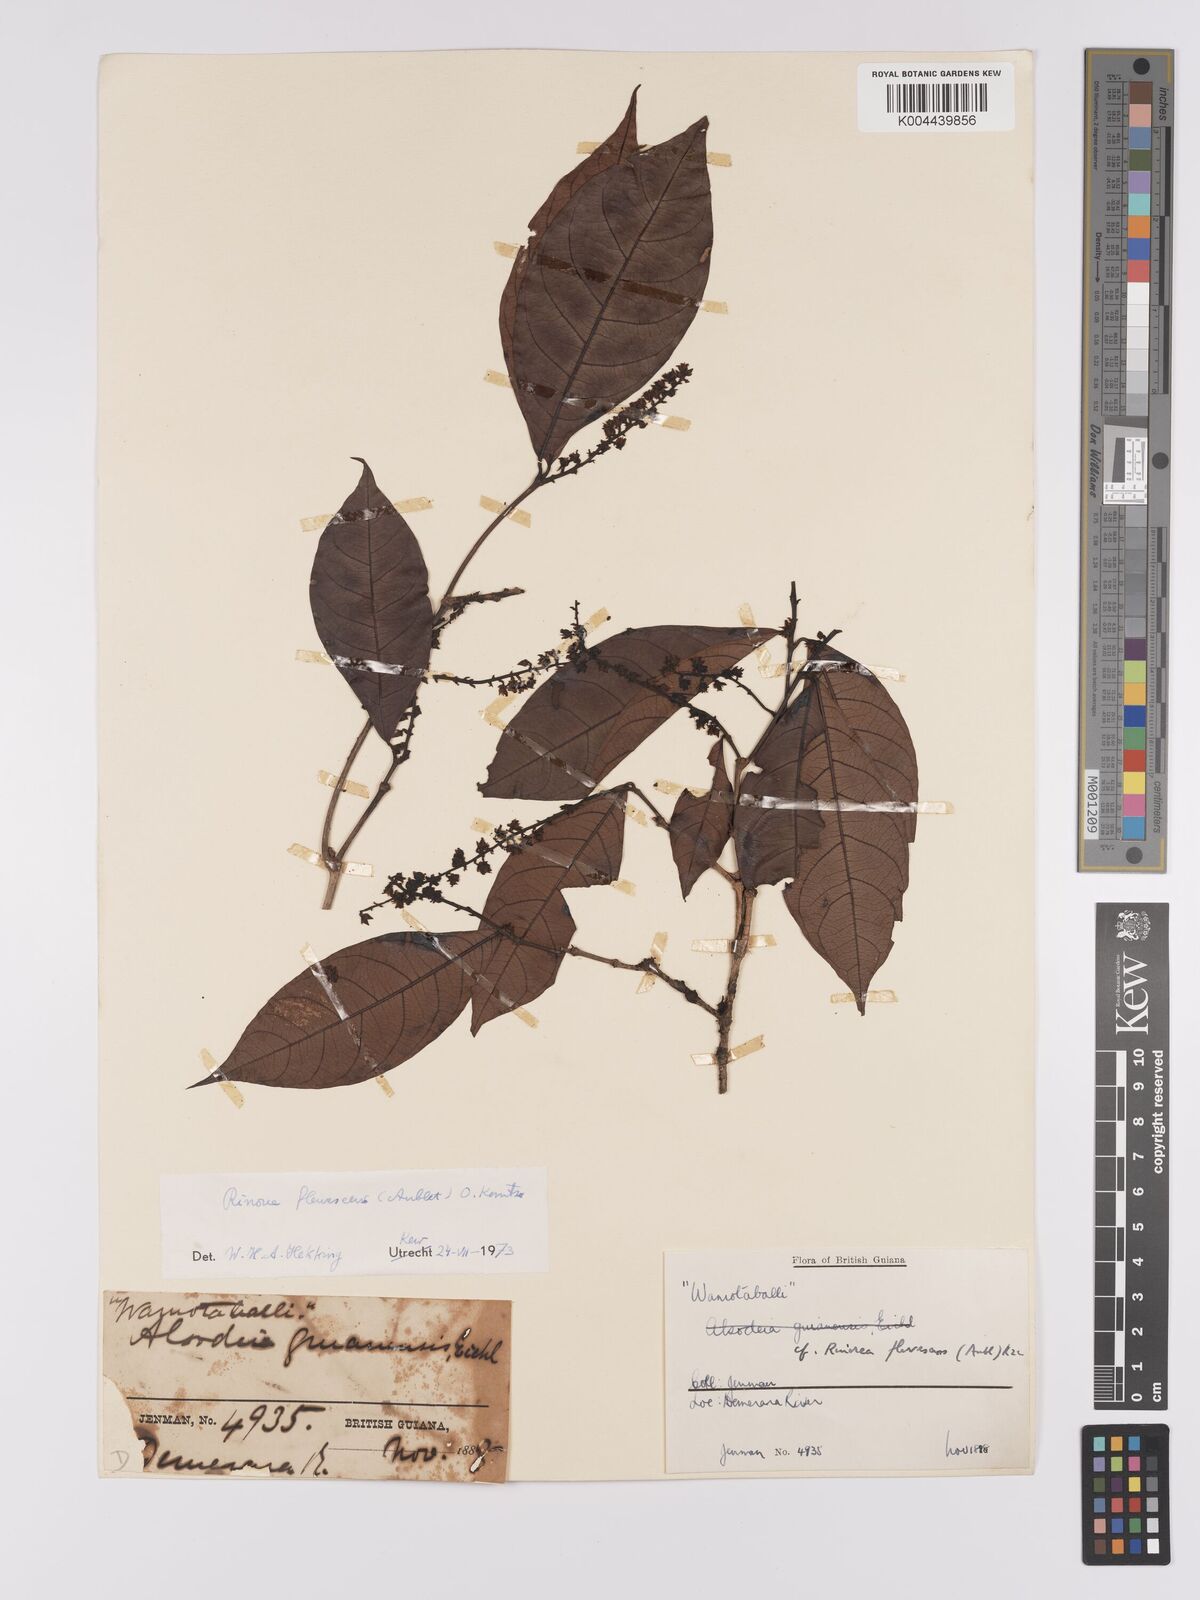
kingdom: Plantae
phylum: Tracheophyta
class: Magnoliopsida
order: Malpighiales
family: Violaceae
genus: Rinorea
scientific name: Rinorea flavescens
